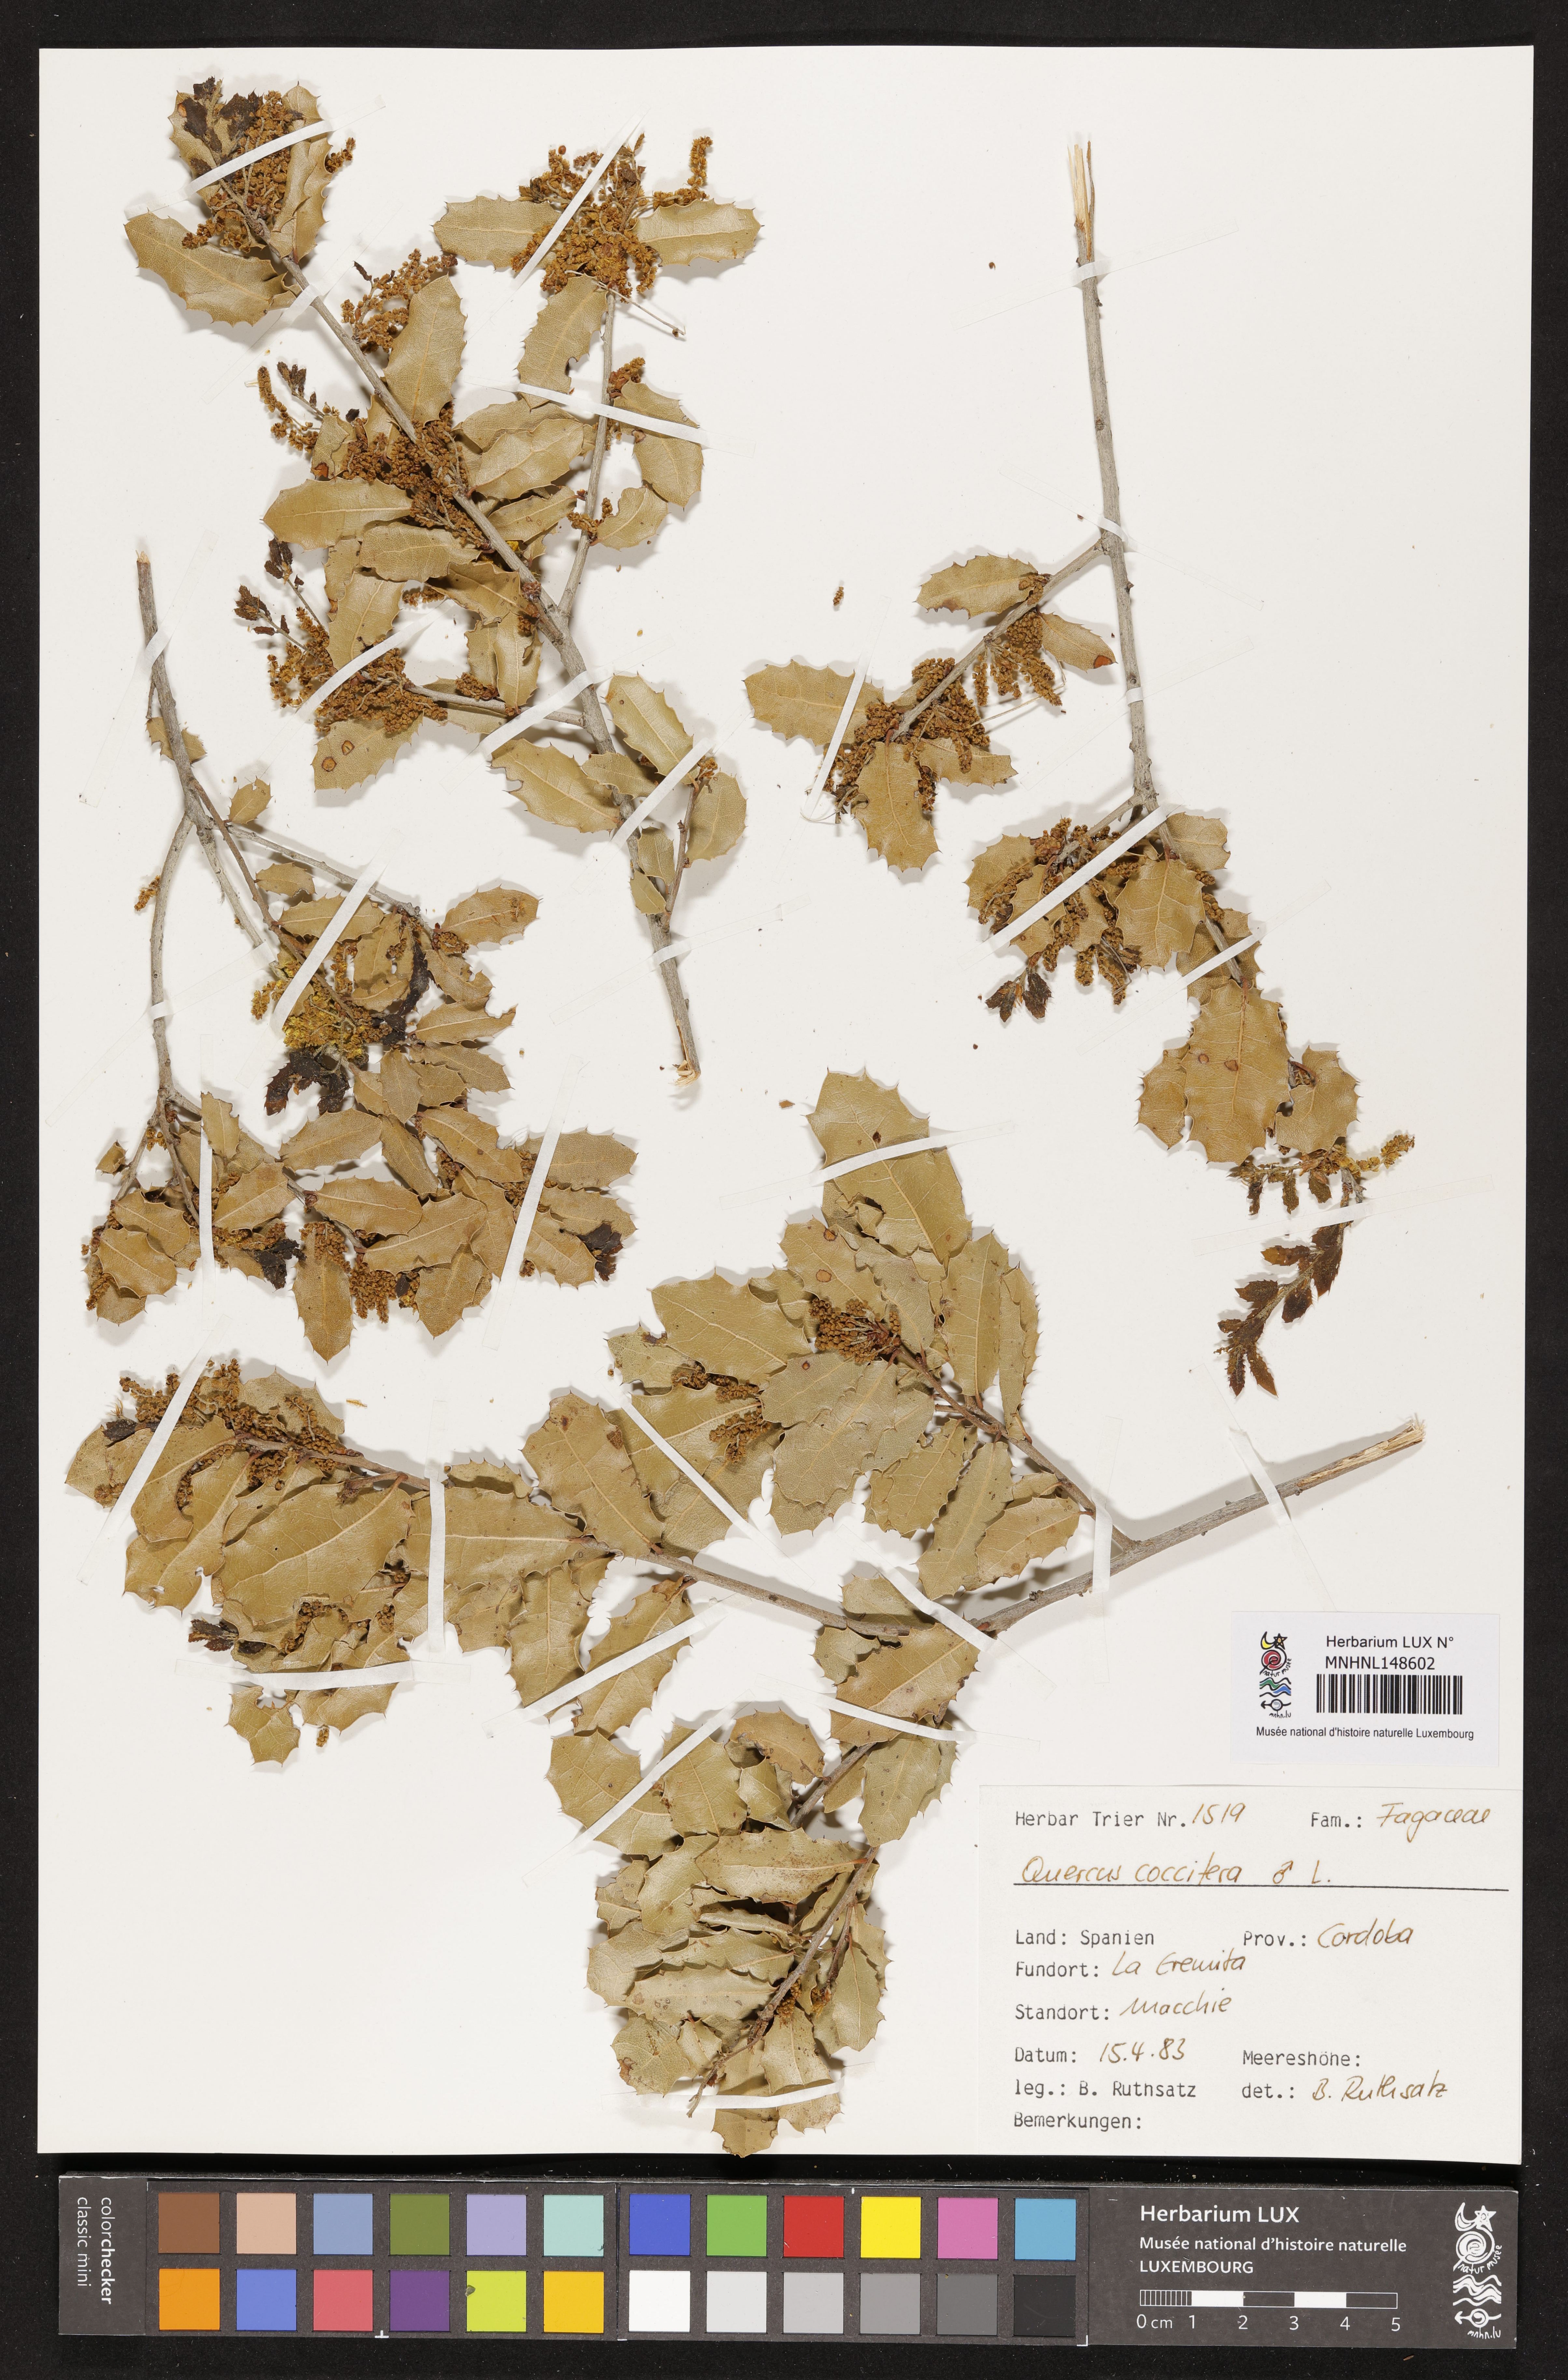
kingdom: Plantae
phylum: Tracheophyta
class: Magnoliopsida
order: Fagales
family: Fagaceae
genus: Quercus
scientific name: Quercus coccifera
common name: Kermes oak
